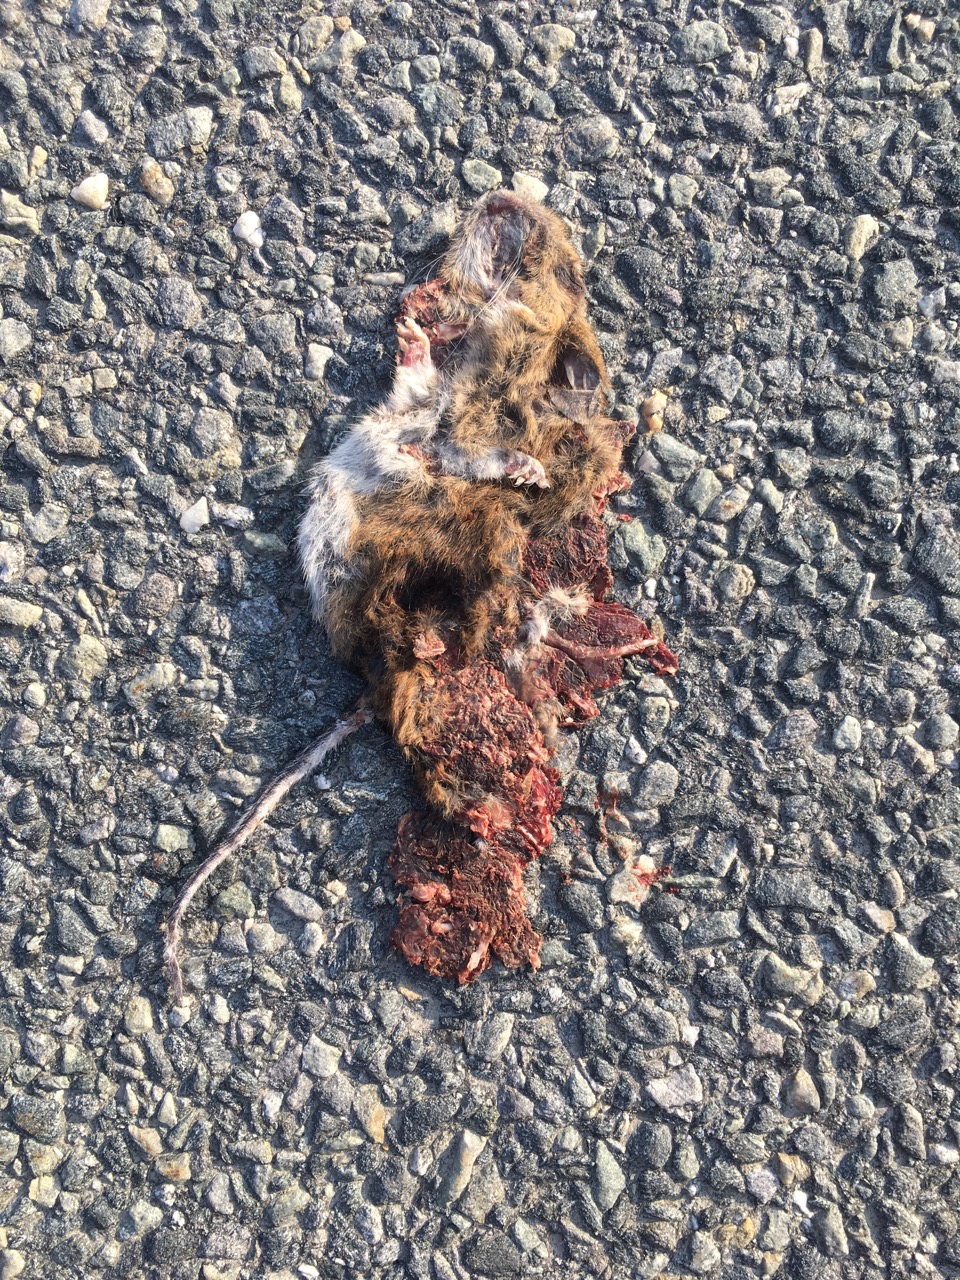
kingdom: Animalia
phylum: Chordata
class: Mammalia
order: Rodentia
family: Muridae
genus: Apodemus
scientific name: Apodemus
